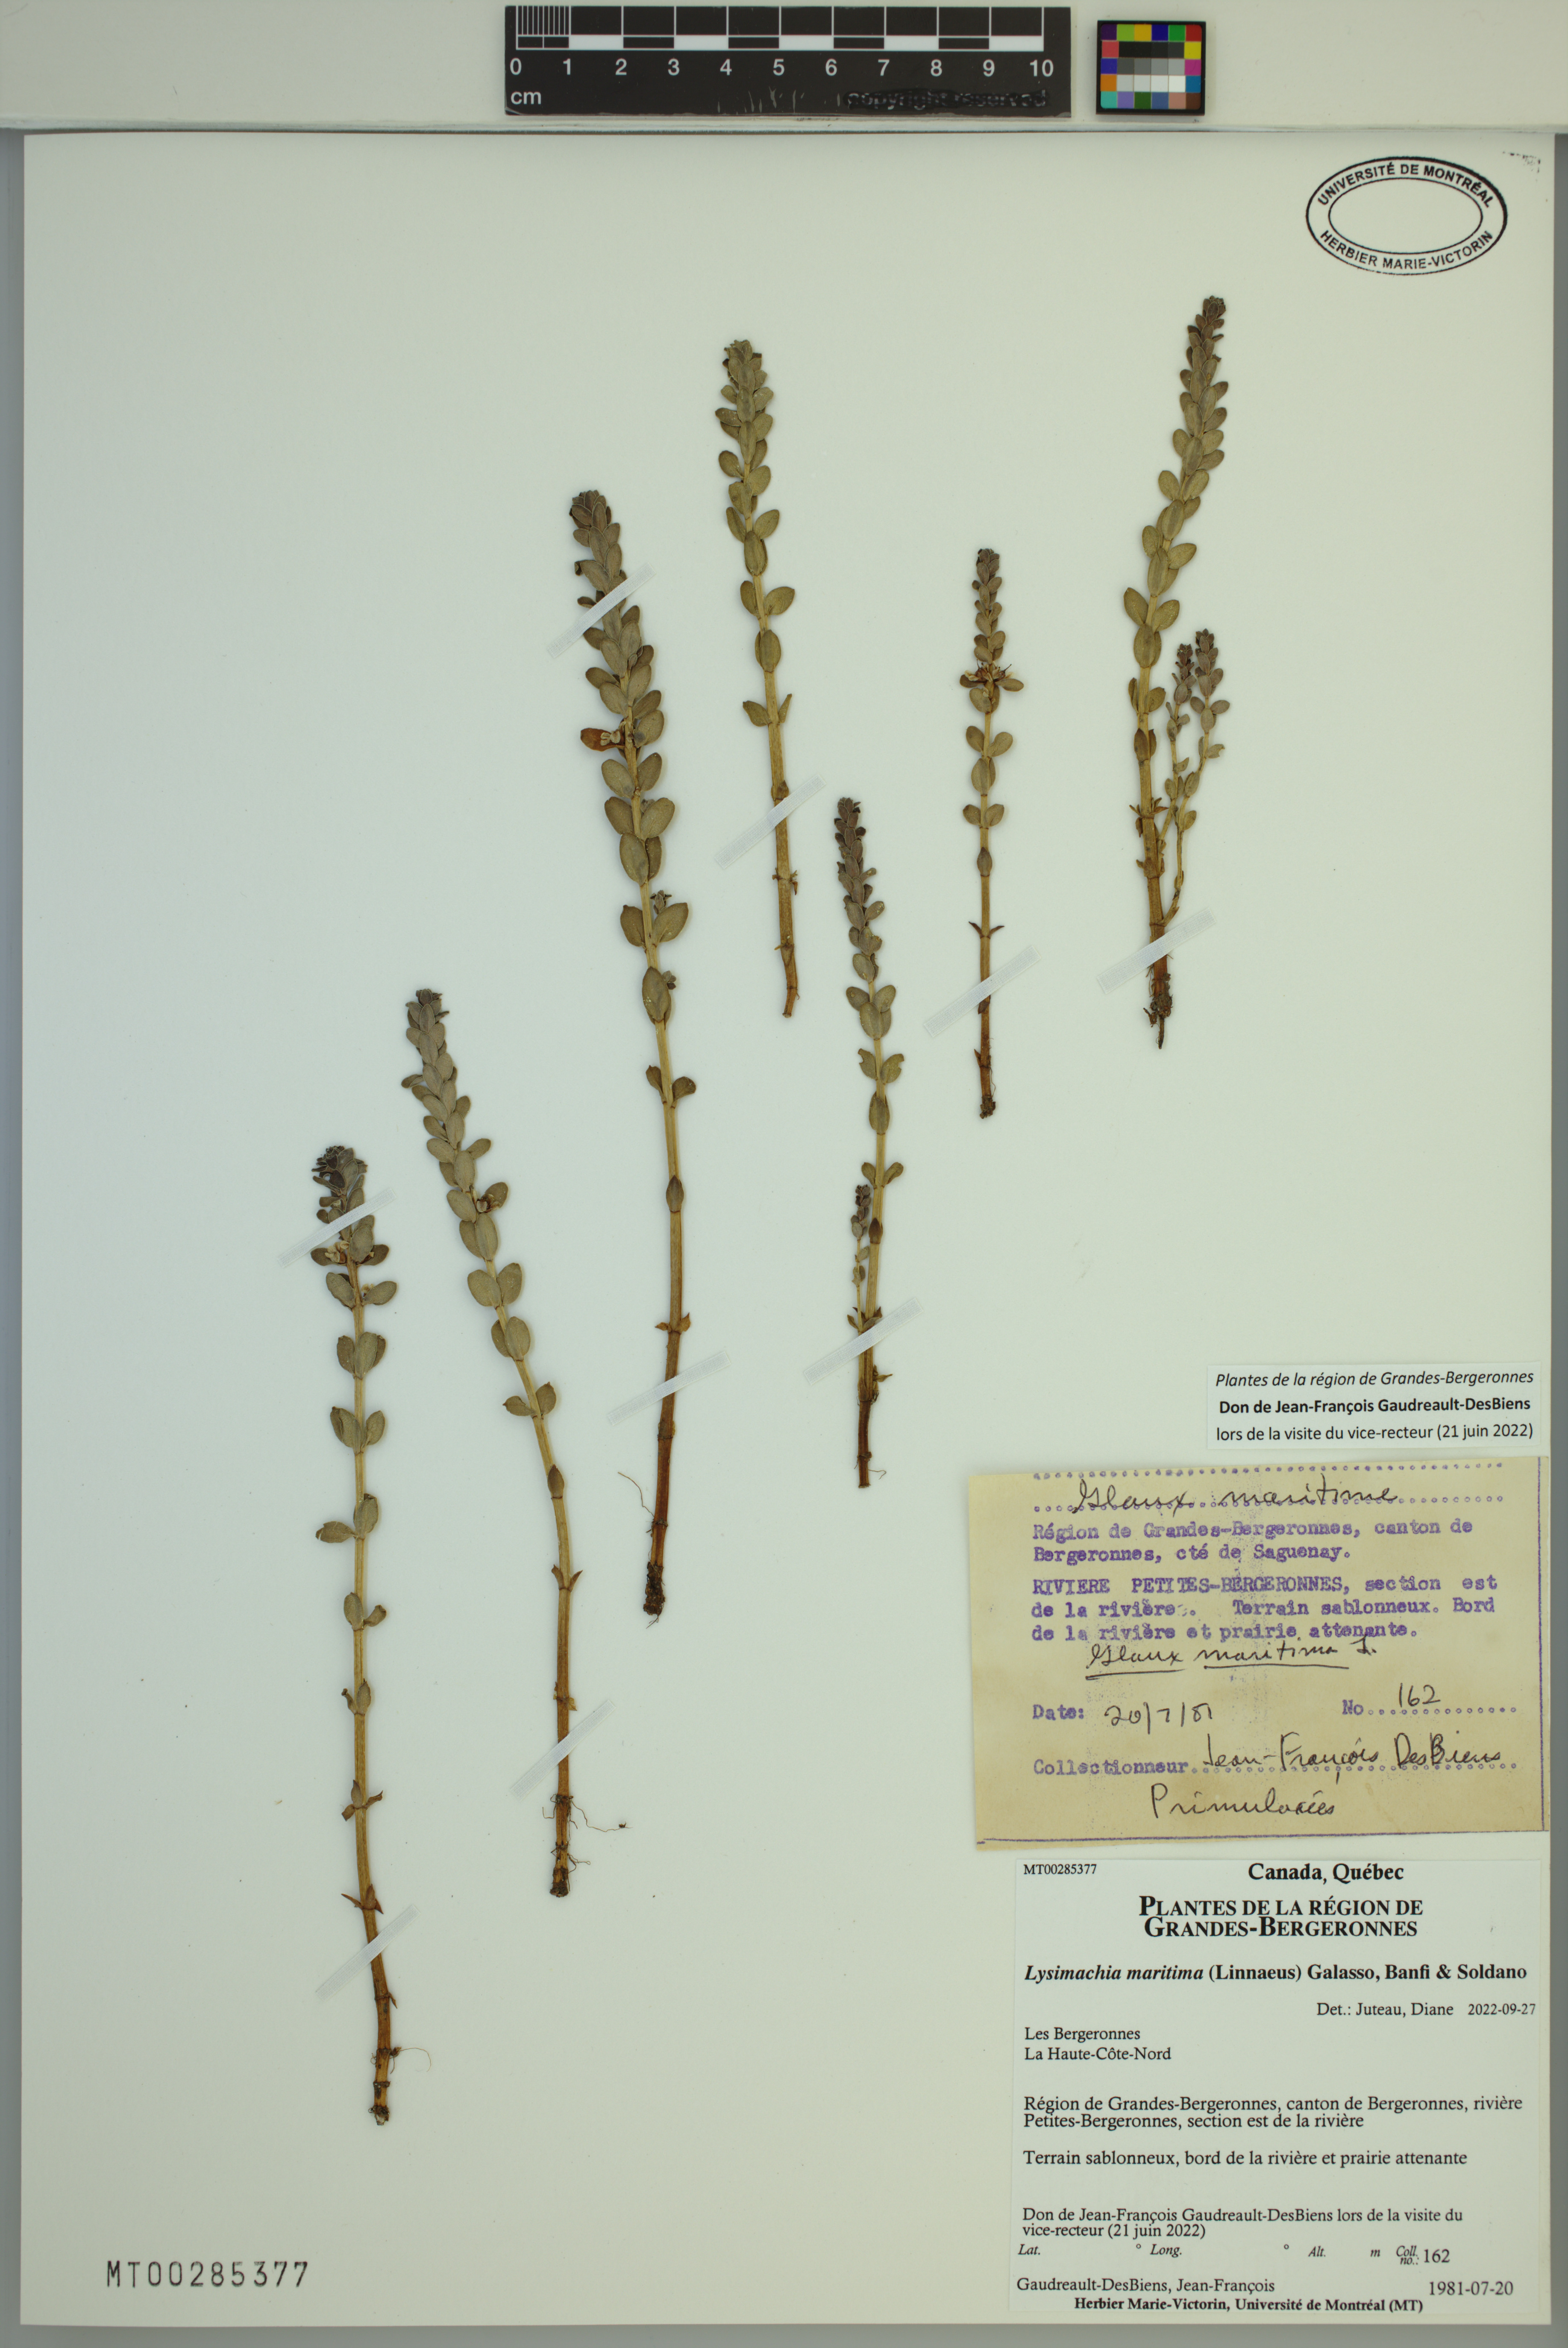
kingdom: Plantae
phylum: Tracheophyta
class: Magnoliopsida
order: Ericales
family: Primulaceae
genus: Lysimachia
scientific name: Lysimachia maritima
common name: Sea milkwort
